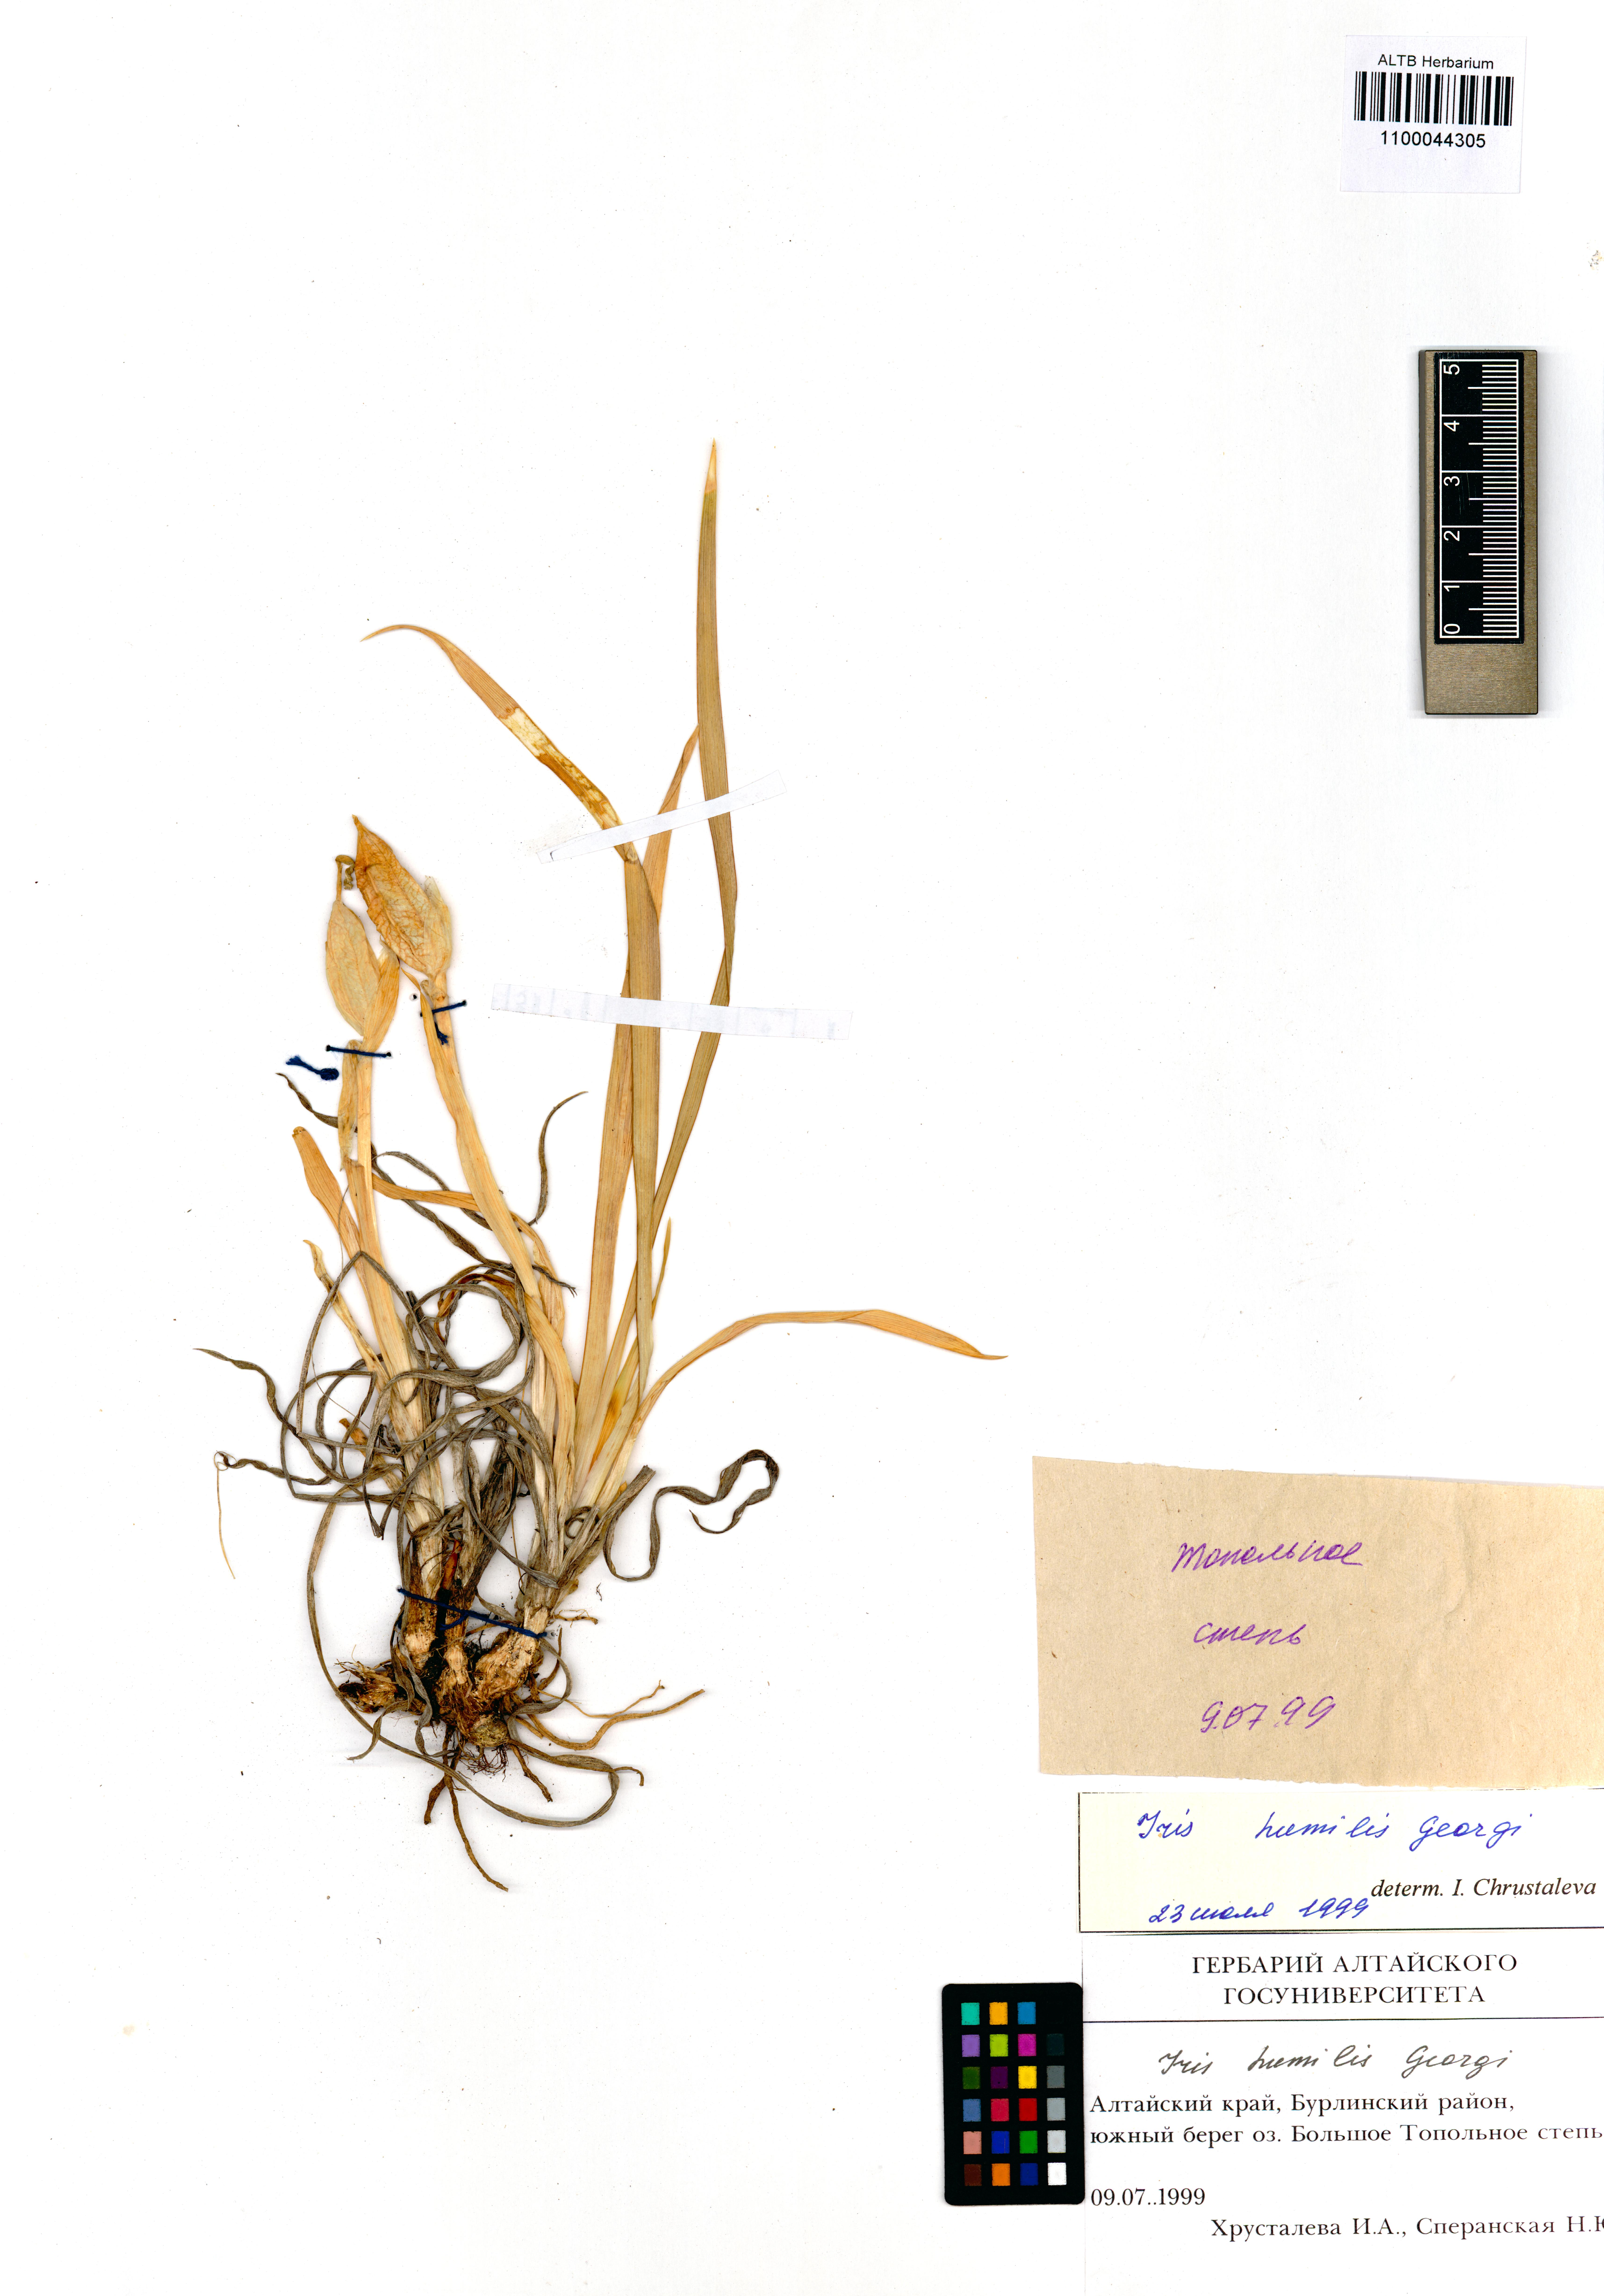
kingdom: Plantae
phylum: Tracheophyta
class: Liliopsida
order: Asparagales
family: Iridaceae
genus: Iris
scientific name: Iris humilis
